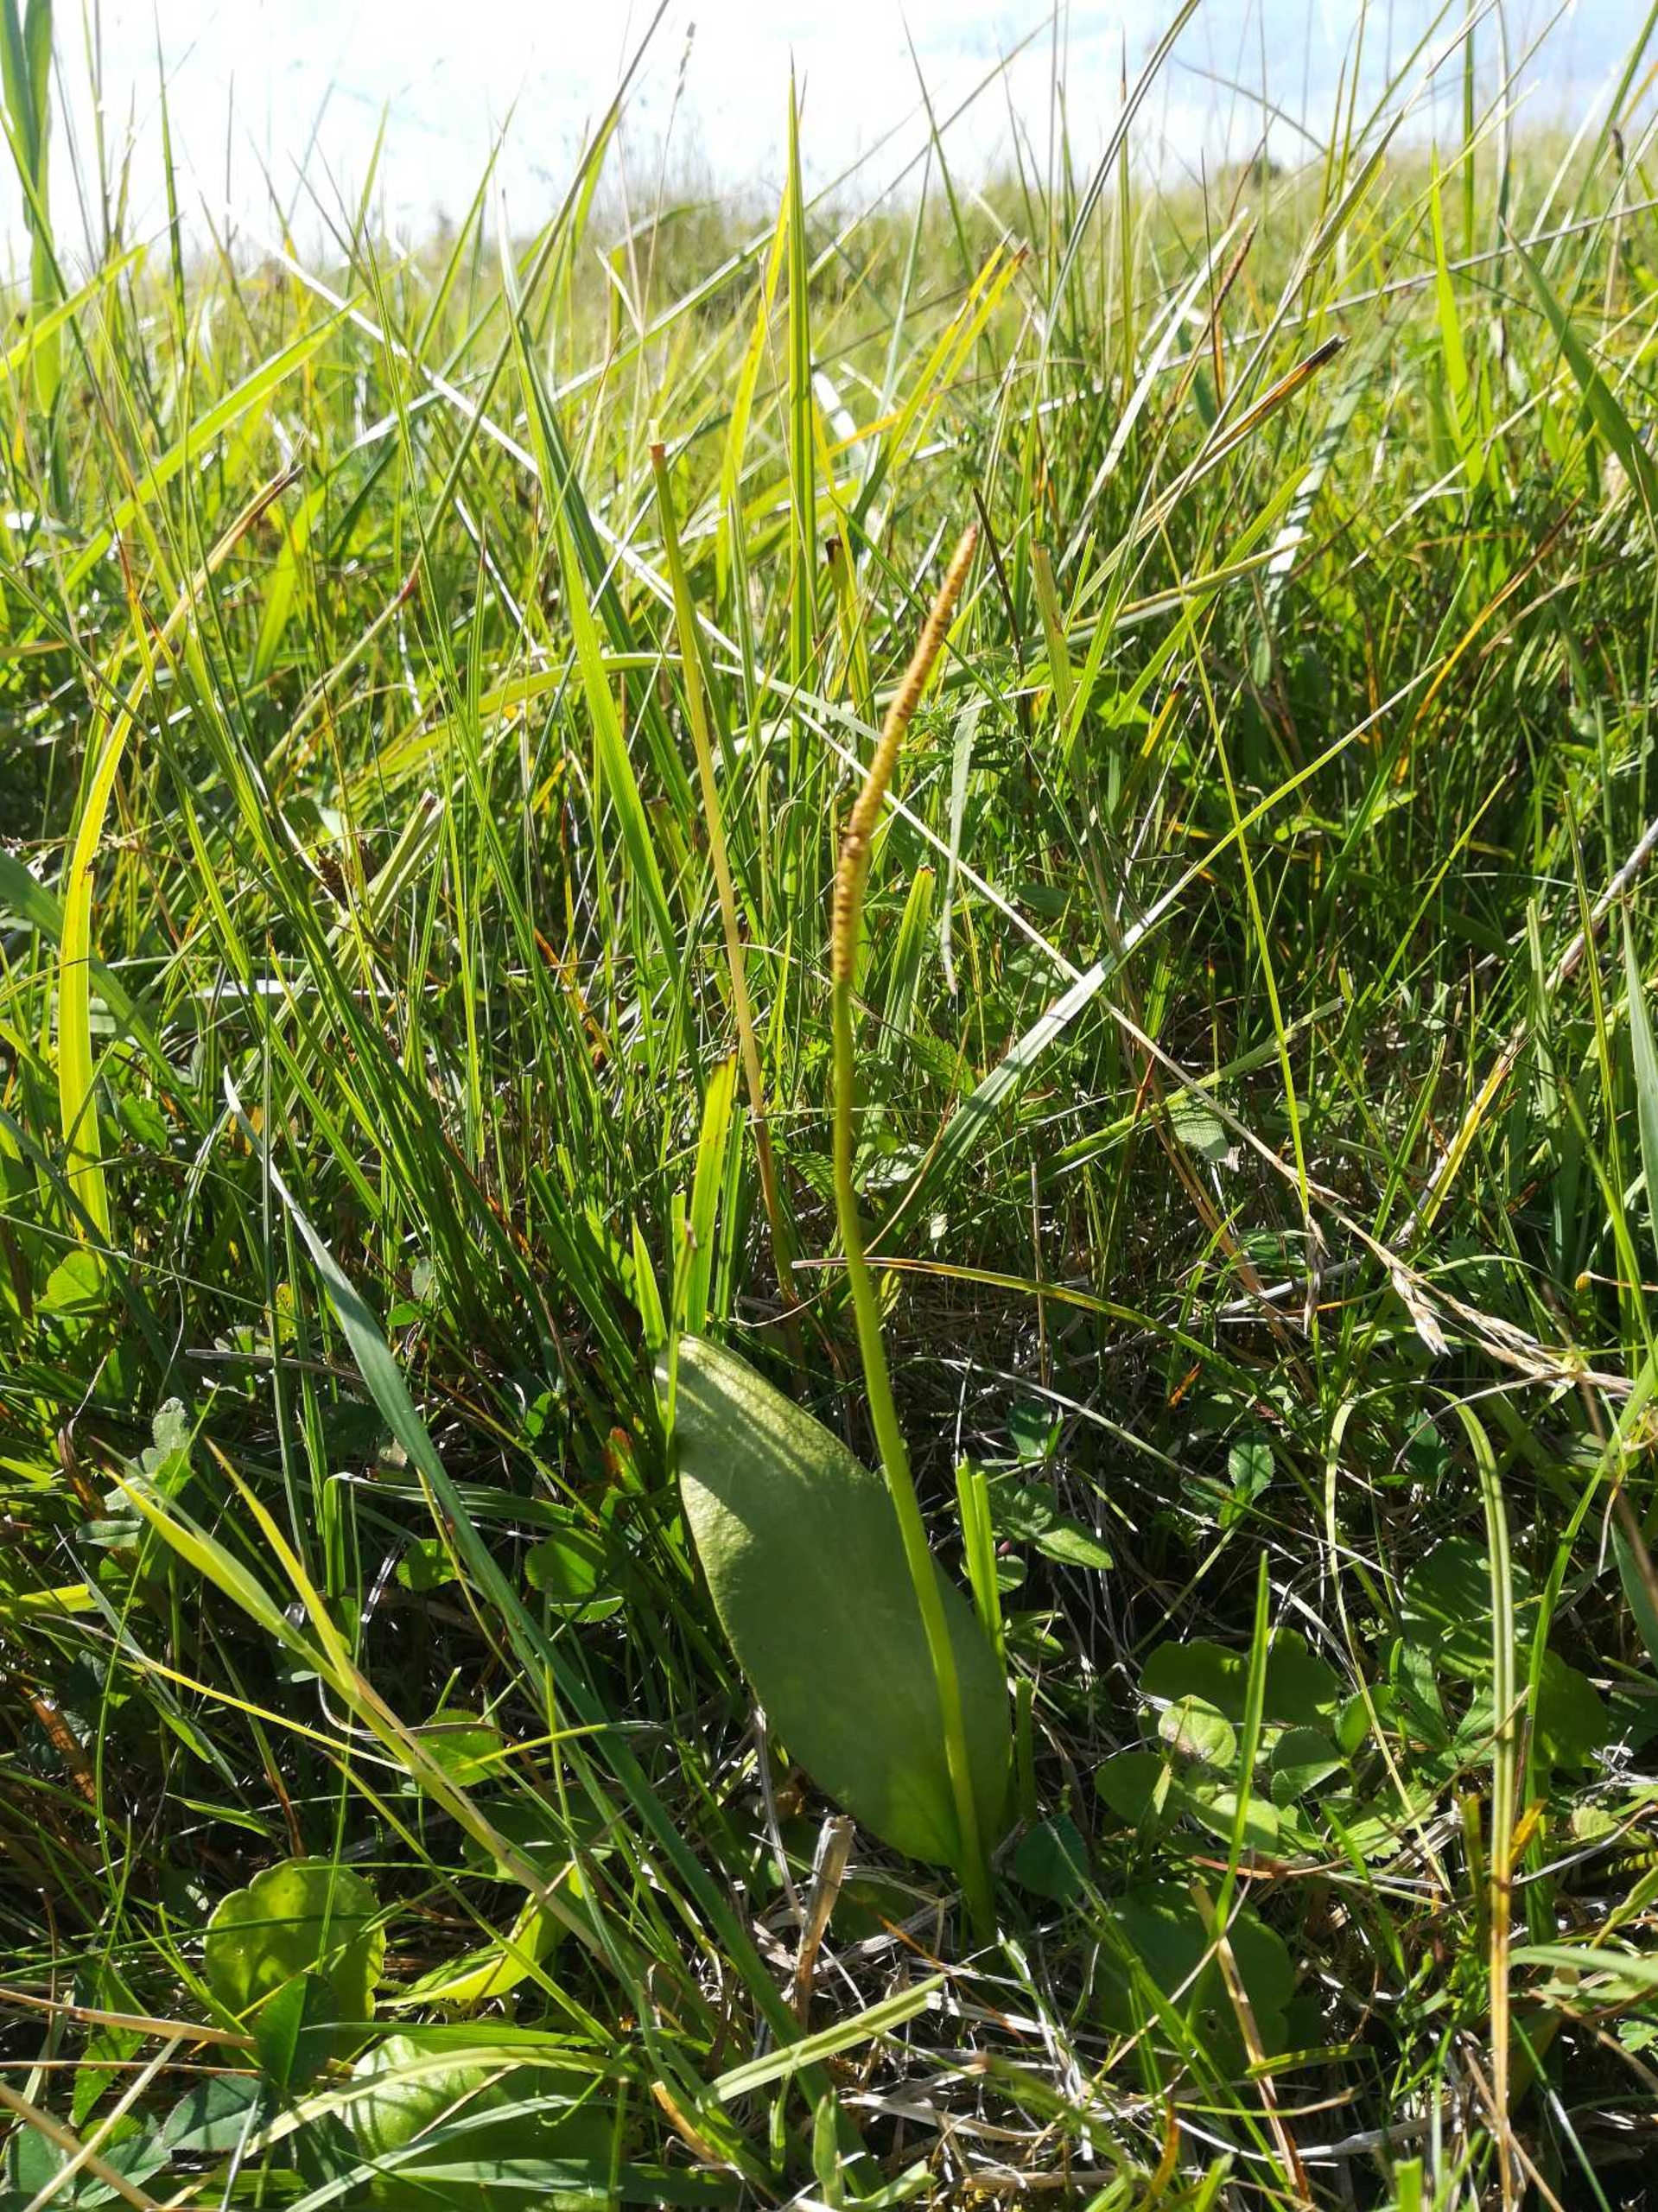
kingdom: Plantae
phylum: Tracheophyta
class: Polypodiopsida
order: Ophioglossales
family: Ophioglossaceae
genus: Ophioglossum
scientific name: Ophioglossum vulgatum
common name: Slangetunge
